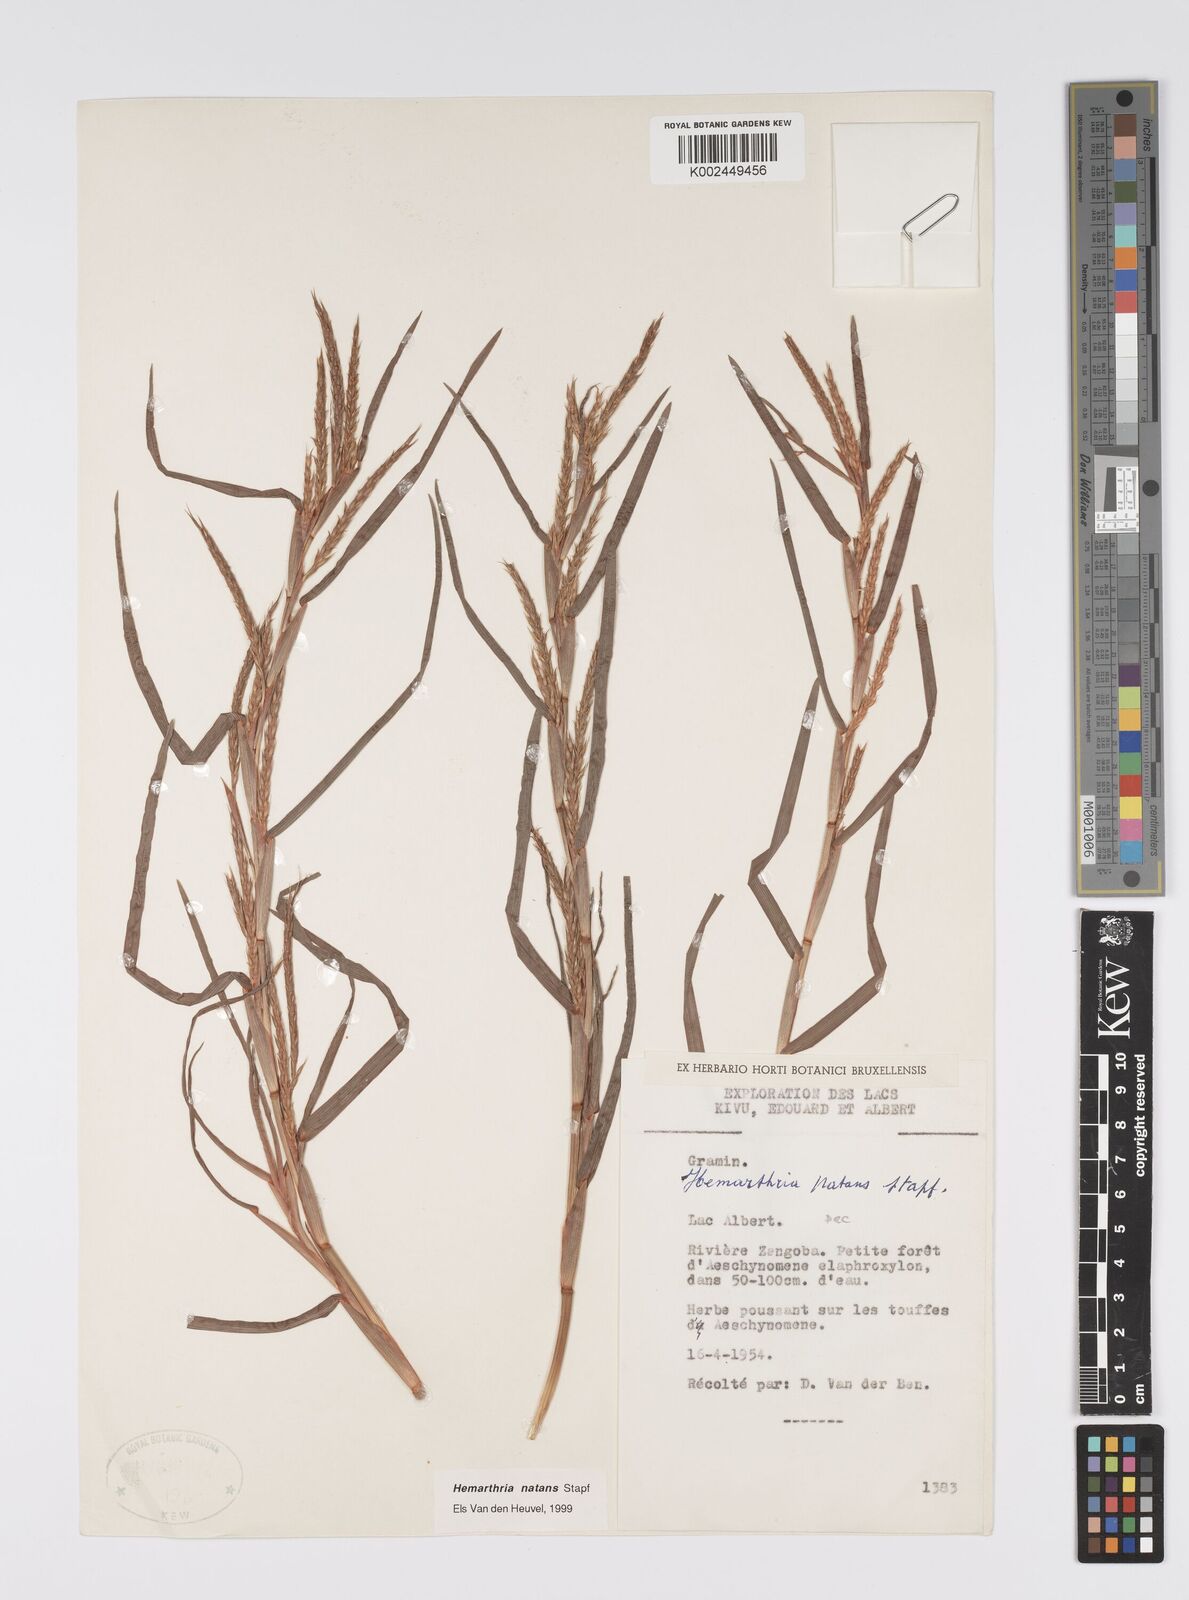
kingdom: Plantae
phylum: Tracheophyta
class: Liliopsida
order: Poales
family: Poaceae
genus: Hemarthria
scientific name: Hemarthria natans
